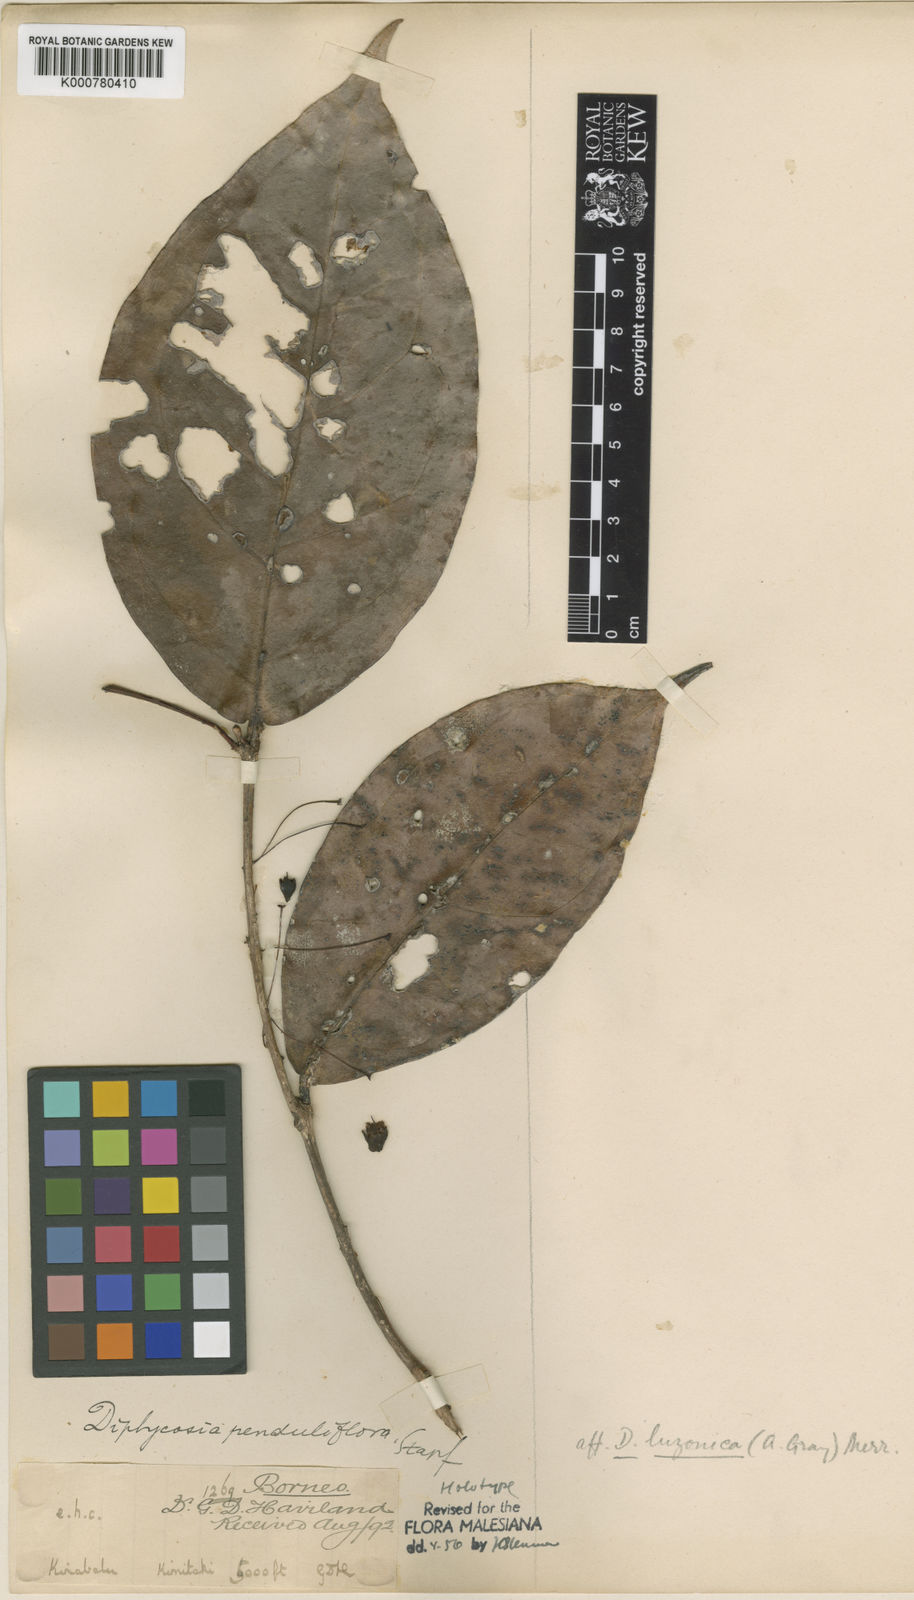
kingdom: Plantae
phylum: Tracheophyta
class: Magnoliopsida
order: Ericales
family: Ericaceae
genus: Gaultheria
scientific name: Gaultheria penduliflora
